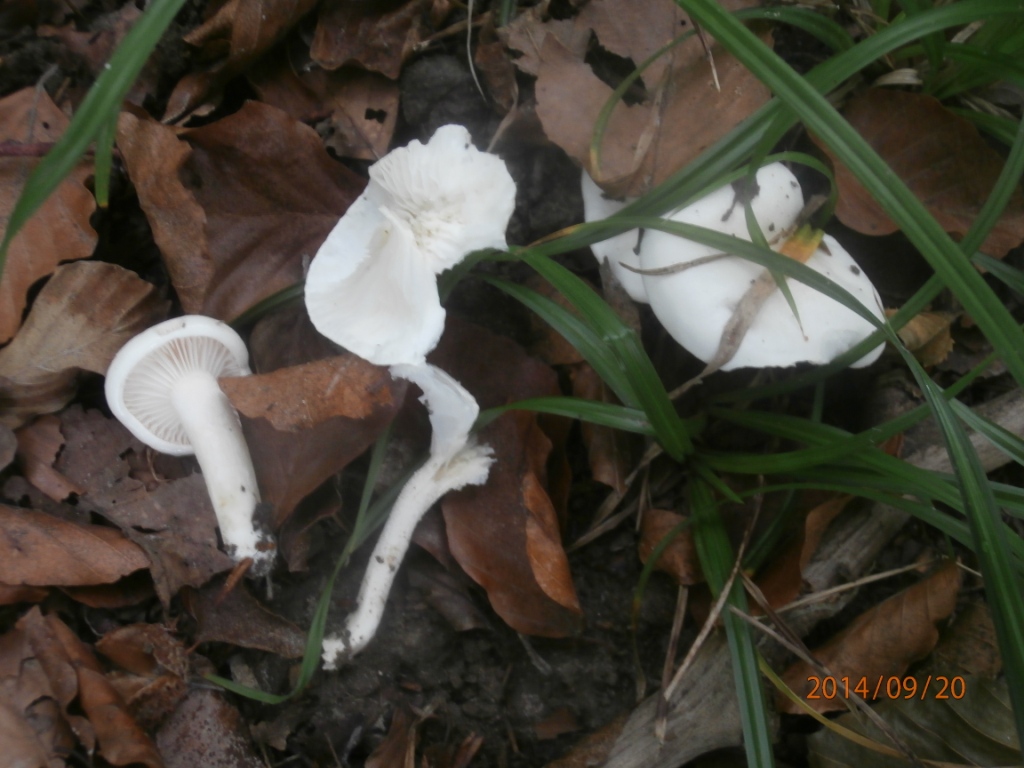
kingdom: Fungi
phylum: Basidiomycota
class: Agaricomycetes
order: Agaricales
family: Hygrophoraceae
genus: Hygrophorus
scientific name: Hygrophorus eburneus
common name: elfenbens-sneglehat
